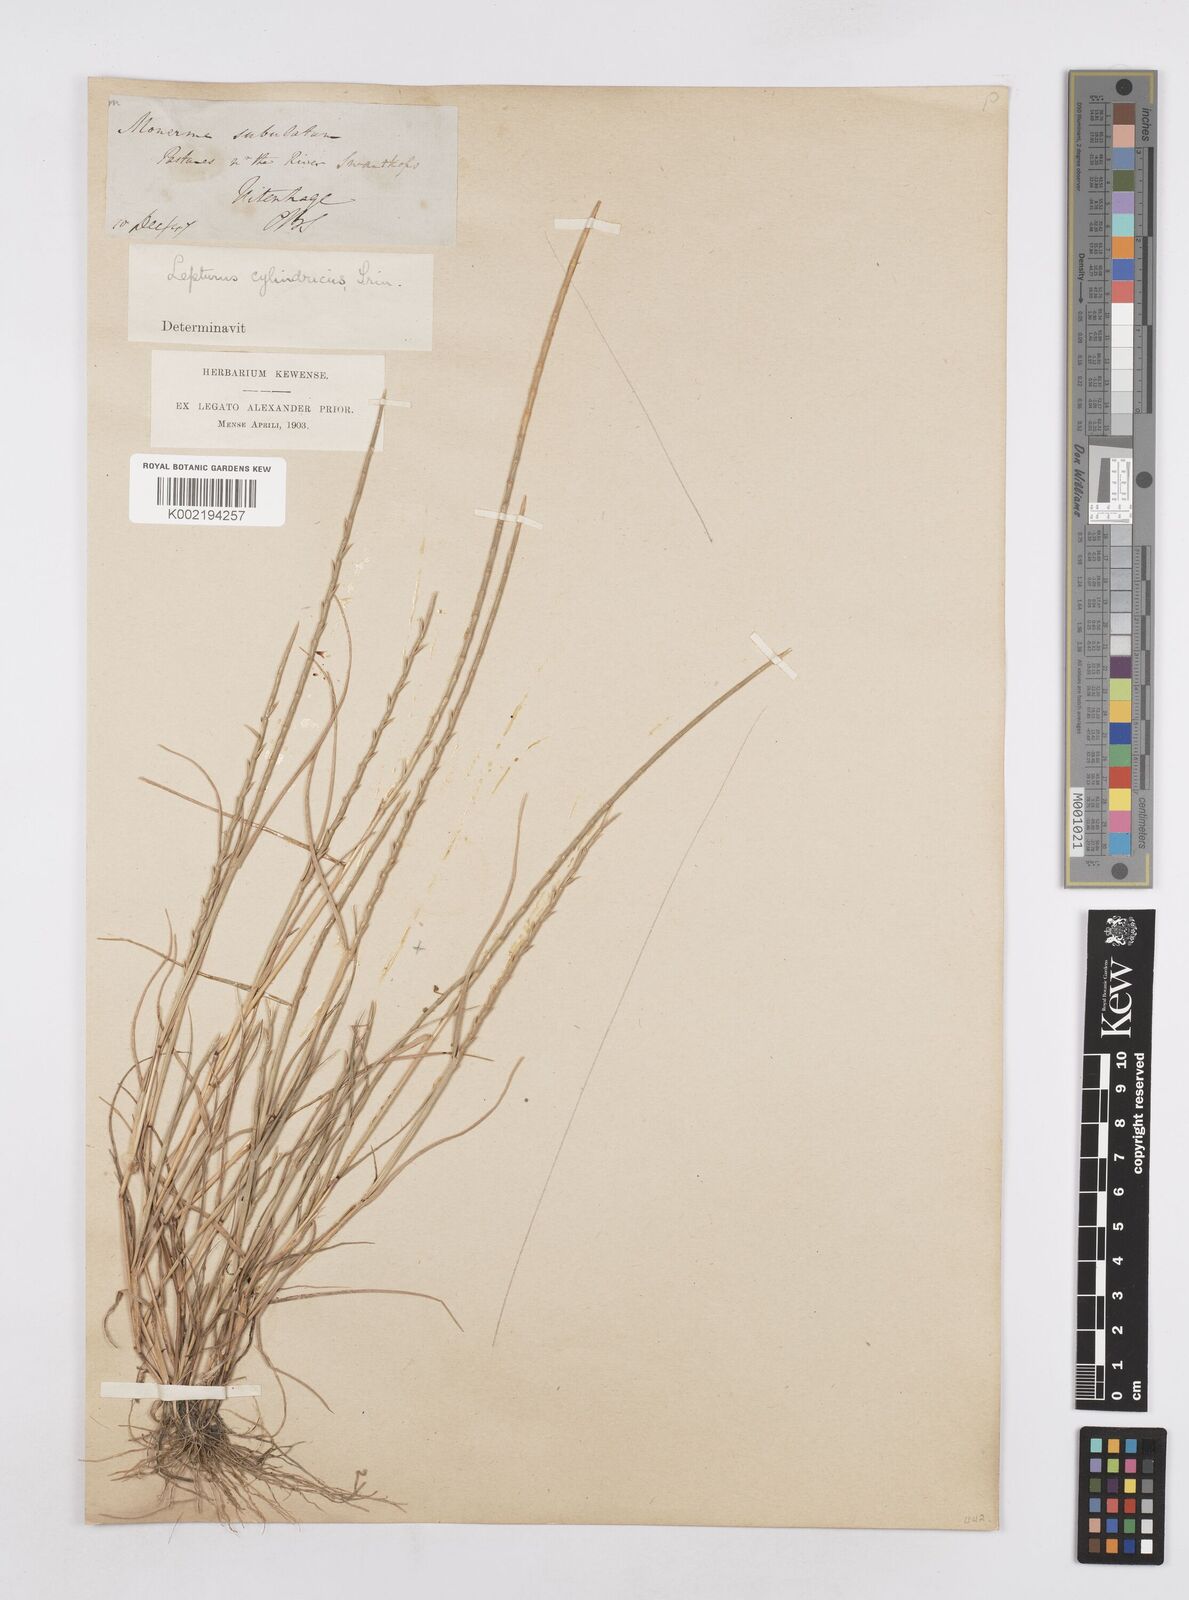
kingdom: Plantae
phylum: Tracheophyta
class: Liliopsida
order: Poales
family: Poaceae
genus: Parapholis
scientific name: Parapholis cylindrica
